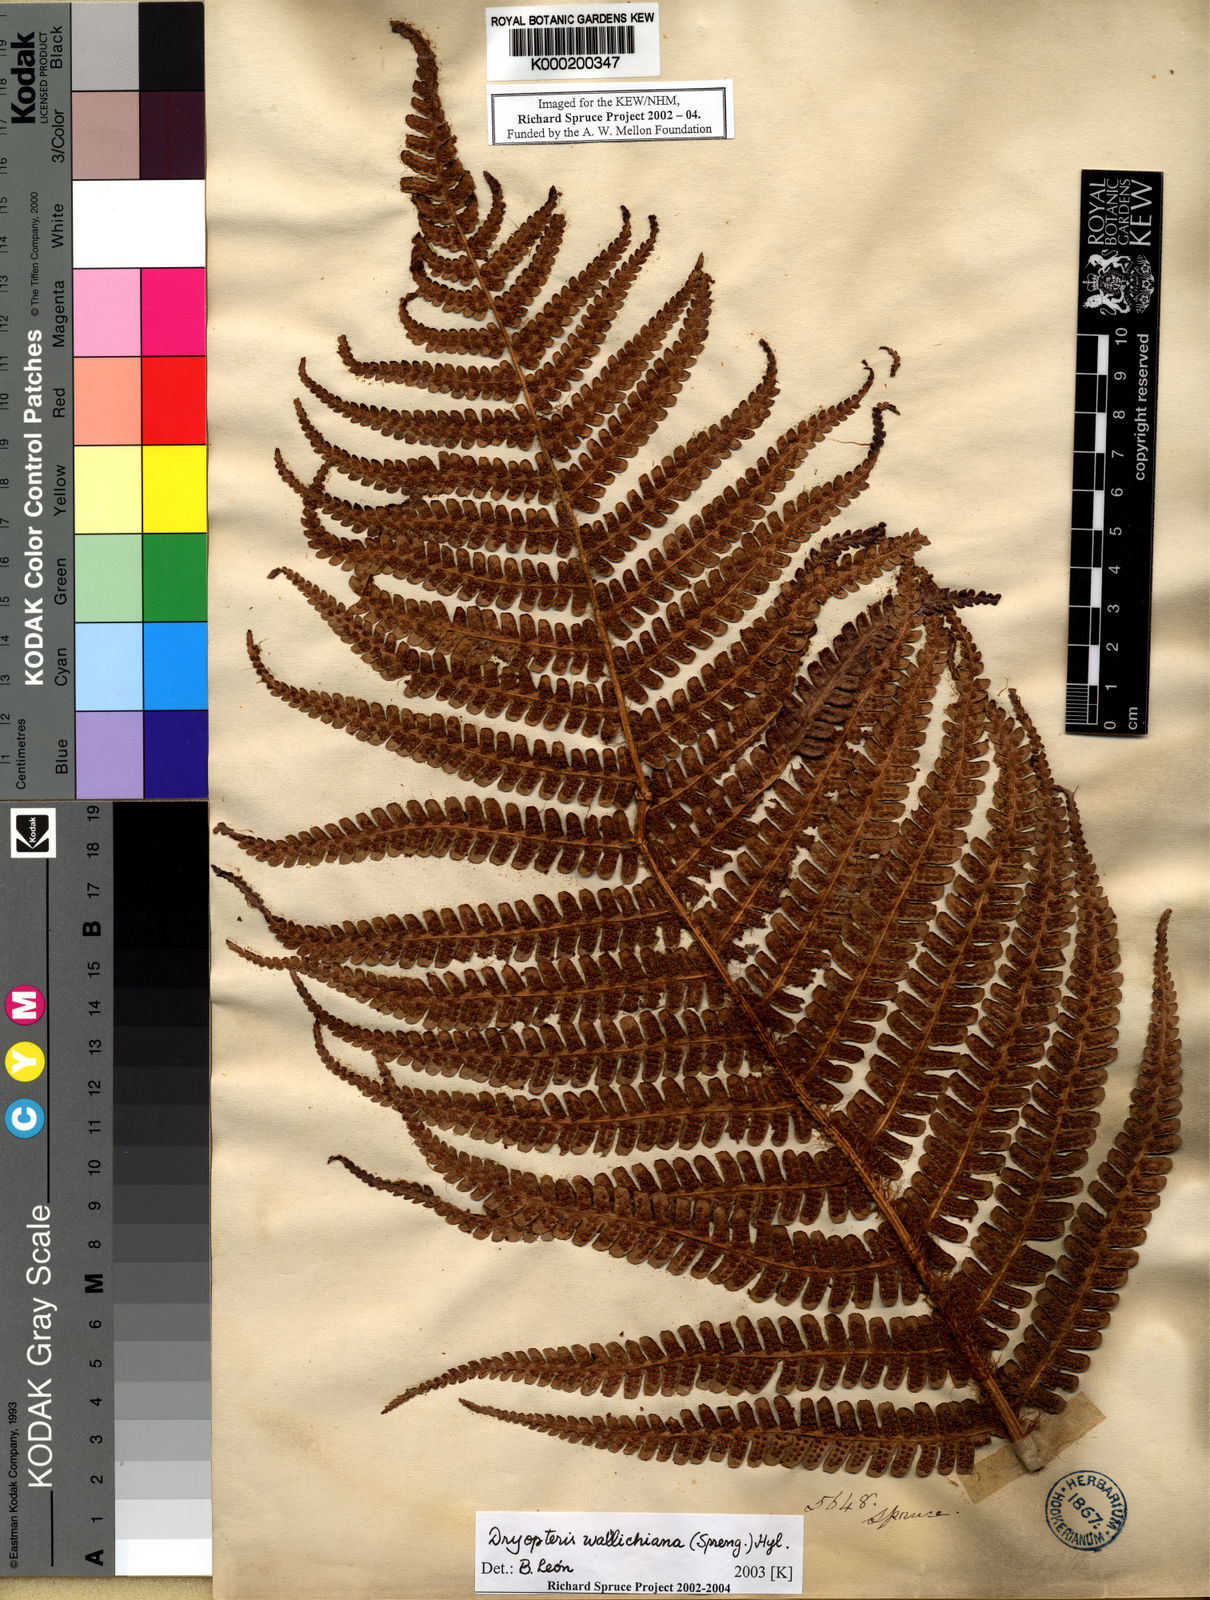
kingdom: Plantae
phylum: Tracheophyta
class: Polypodiopsida
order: Polypodiales
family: Dryopteridaceae
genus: Dryopteris
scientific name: Dryopteris
